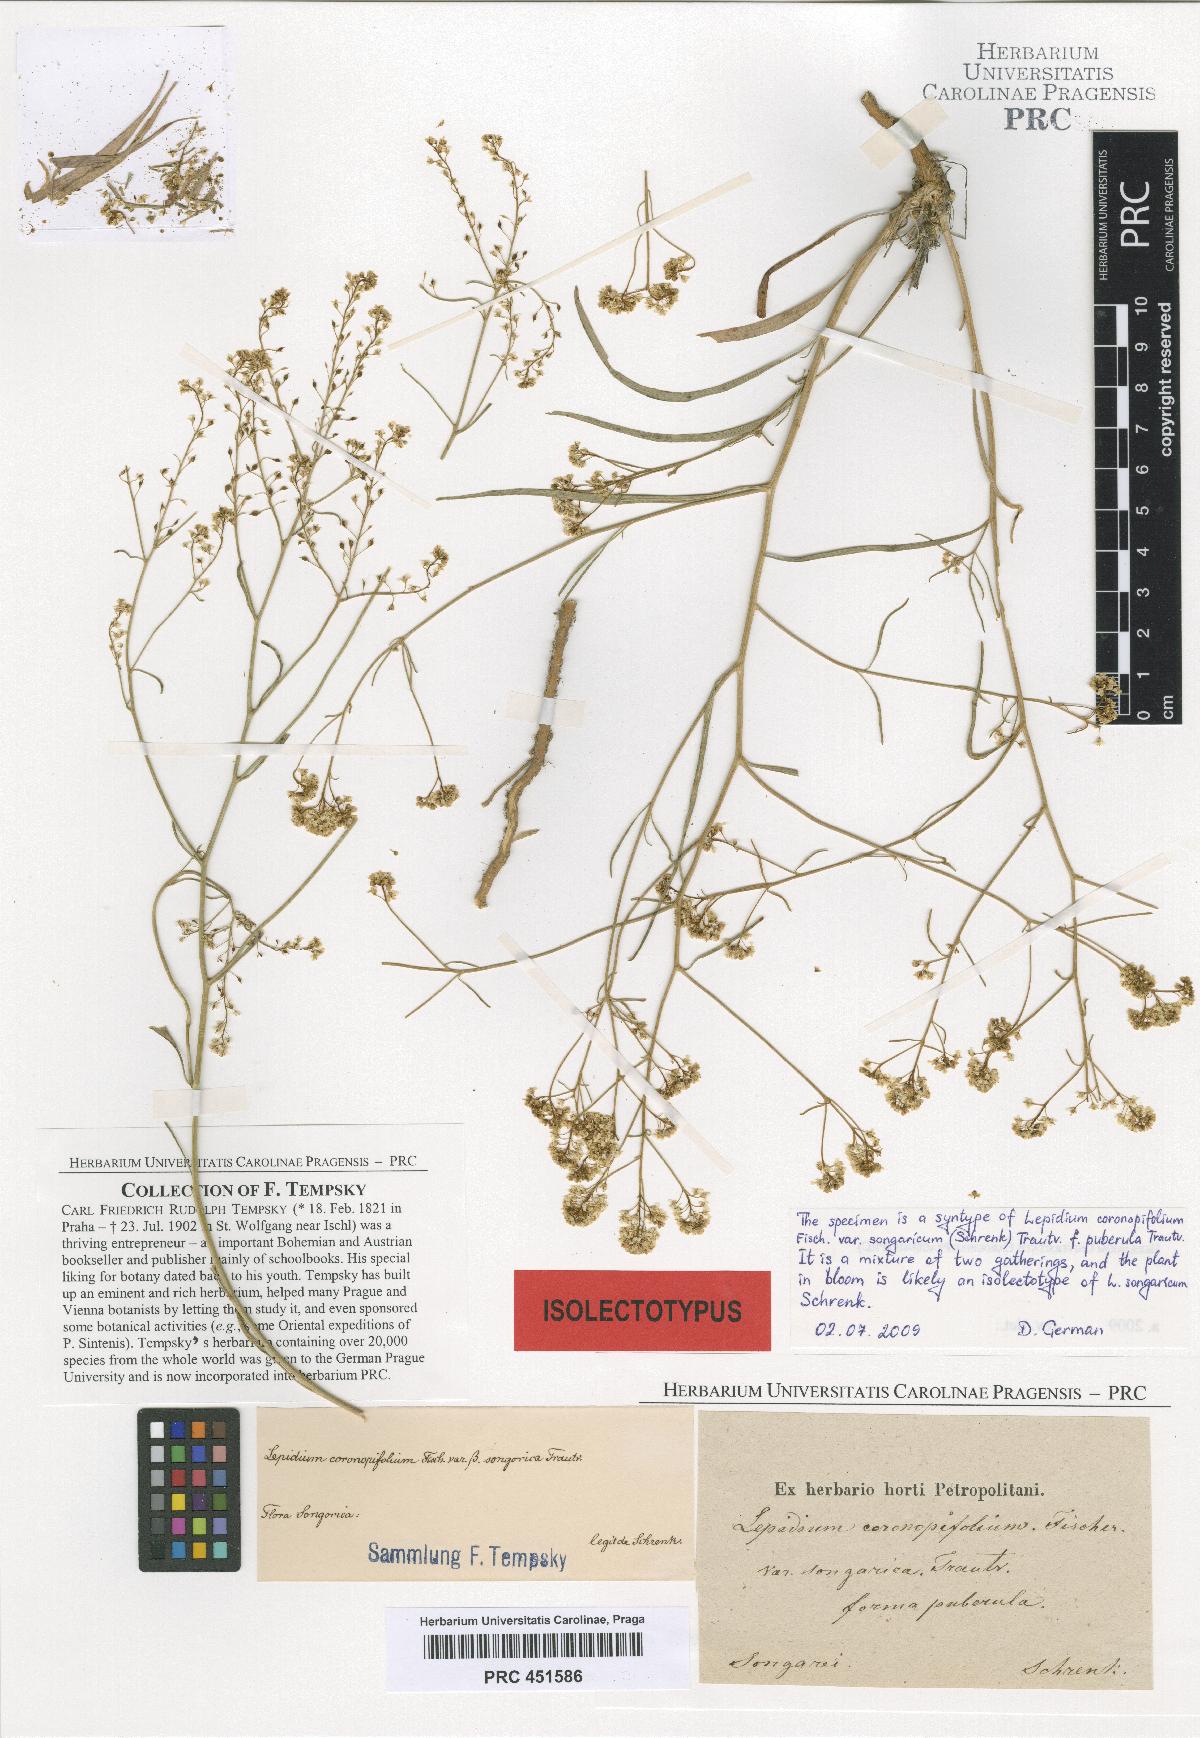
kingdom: Plantae
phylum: Tracheophyta
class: Magnoliopsida
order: Brassicales
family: Brassicaceae
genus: Lepidium
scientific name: Lepidium songaricum
